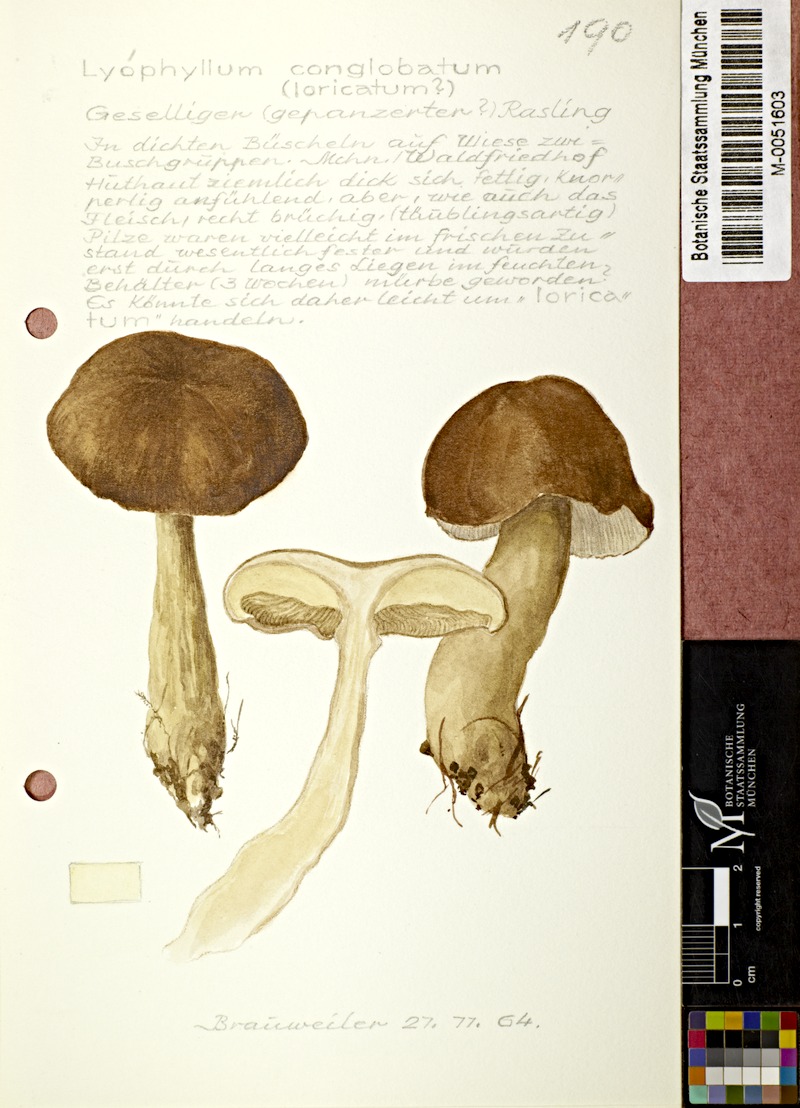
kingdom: Fungi
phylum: Basidiomycota
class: Agaricomycetes
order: Agaricales
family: Lyophyllaceae
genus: Lyophyllum
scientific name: Lyophyllum loricatum
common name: Gristly domecap
